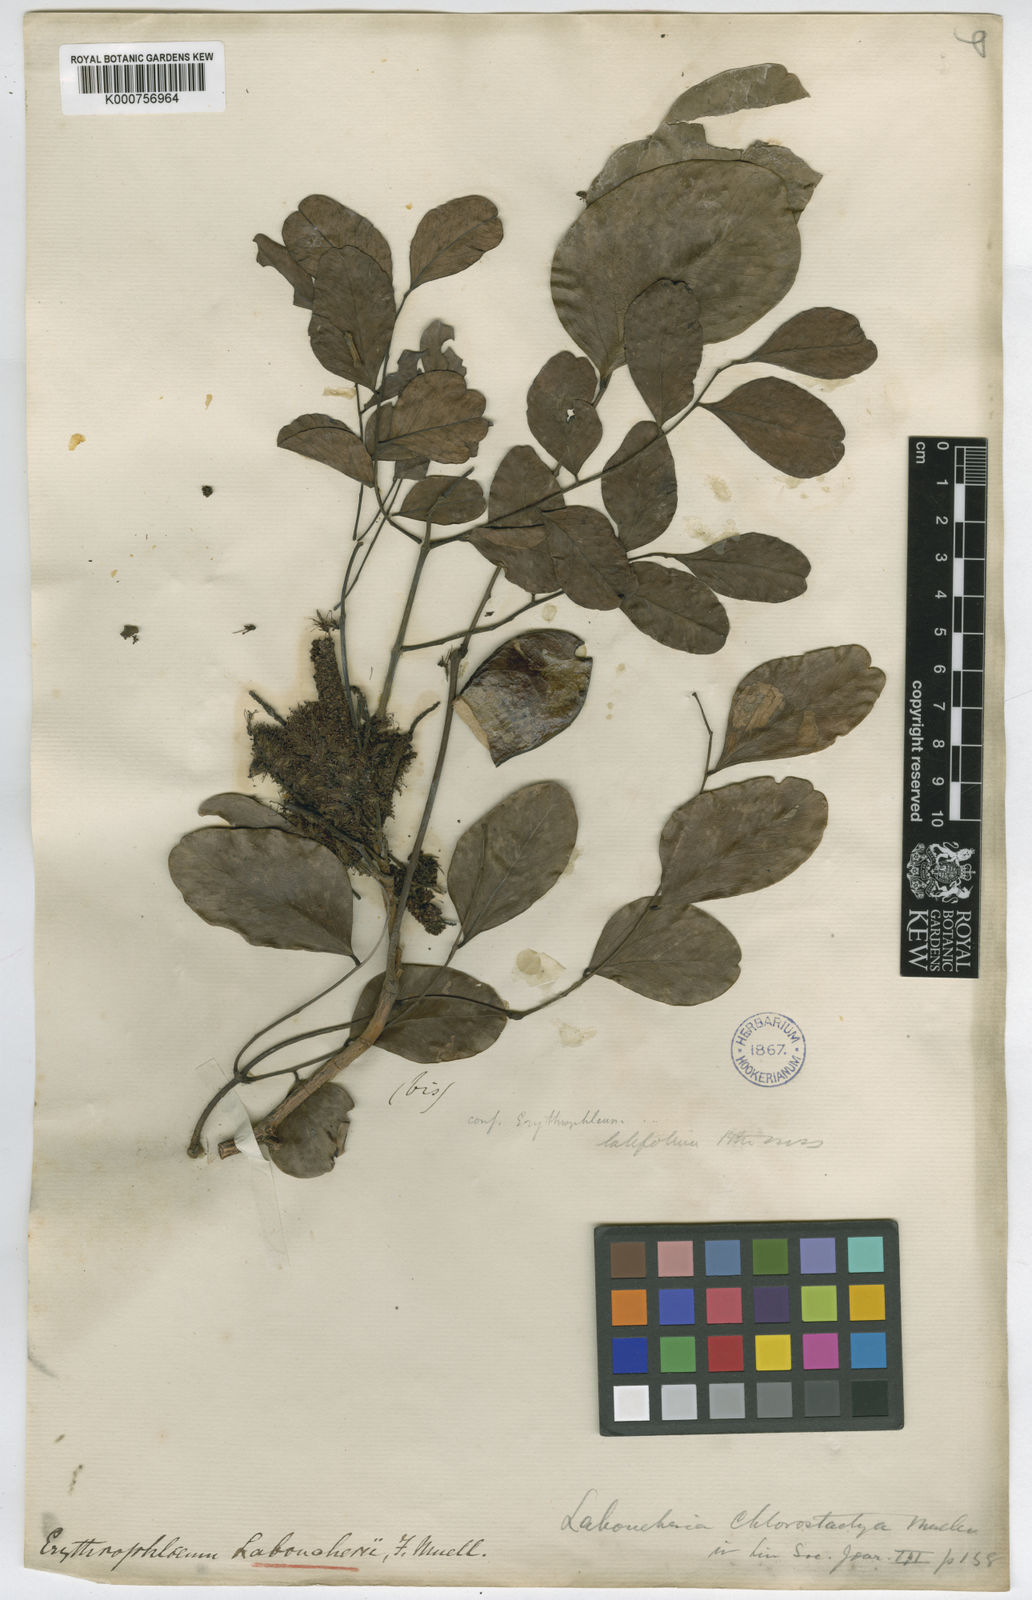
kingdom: Plantae
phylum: Tracheophyta
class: Magnoliopsida
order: Fabales
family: Fabaceae
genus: Erythrophleum
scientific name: Erythrophleum chlorostachys
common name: Black-bean
